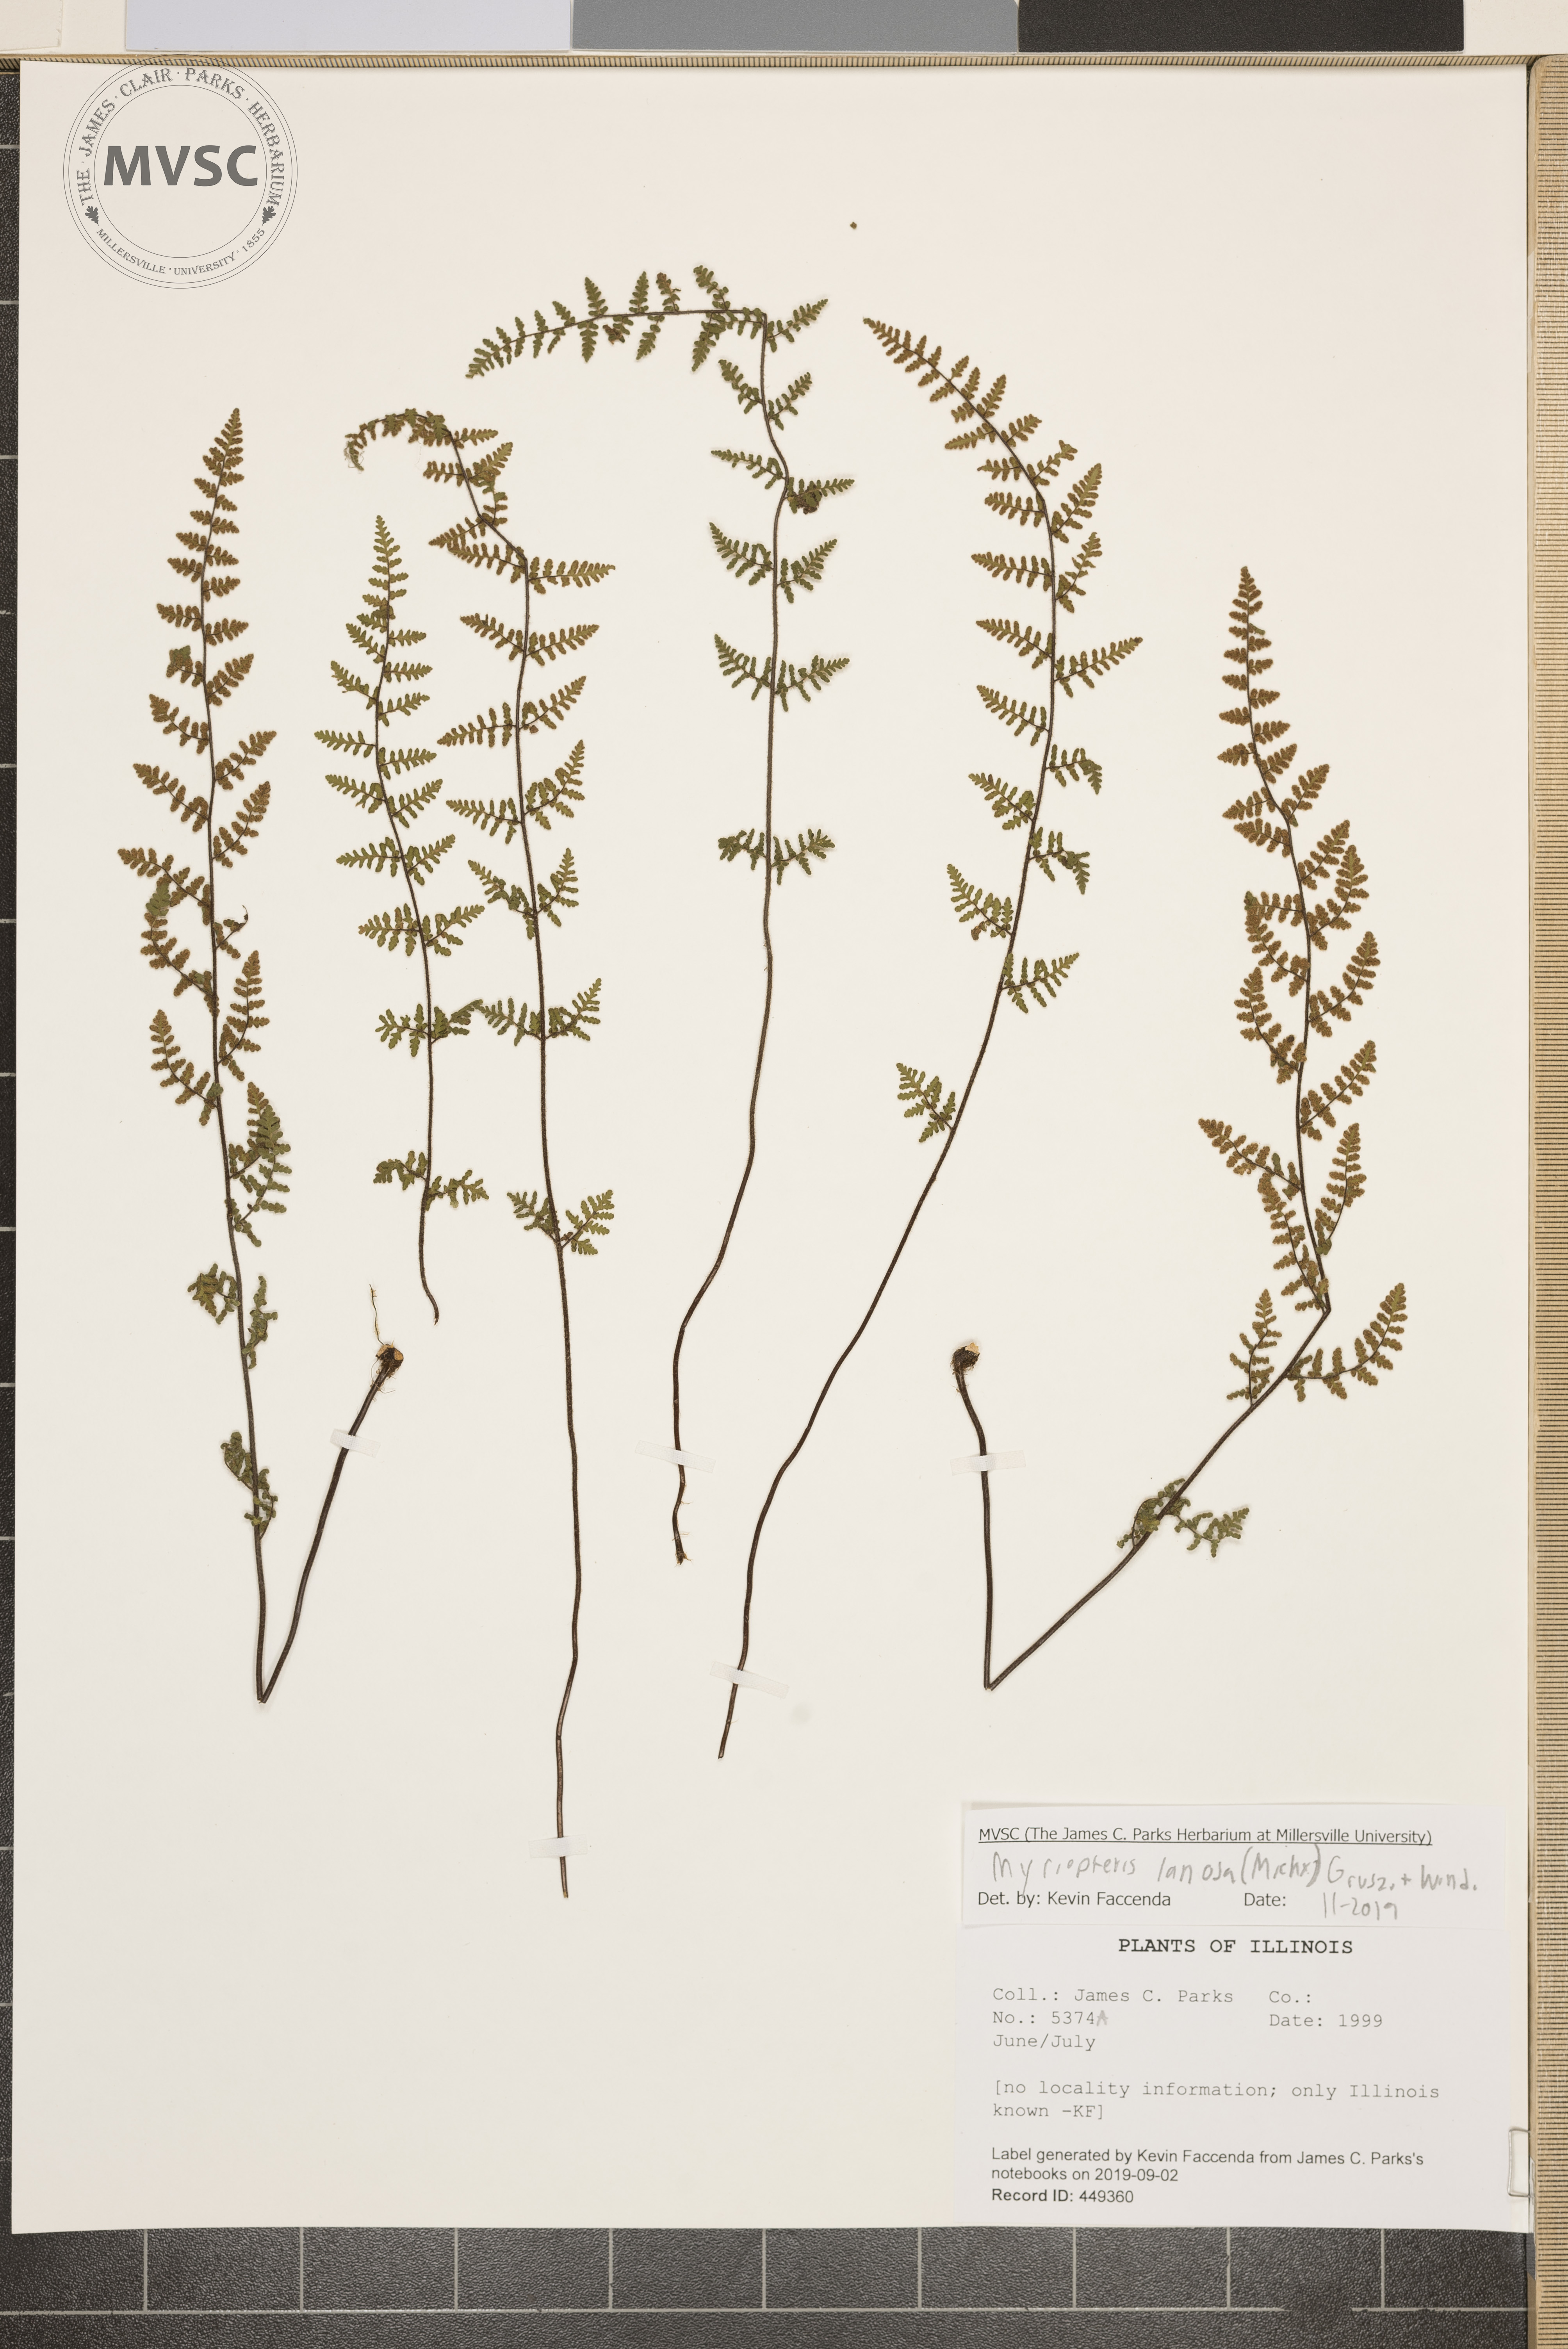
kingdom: Plantae
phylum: Tracheophyta
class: Polypodiopsida
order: Polypodiales
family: Pteridaceae
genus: Myriopteris
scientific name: Myriopteris lanosa
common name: Hairy lip fern
